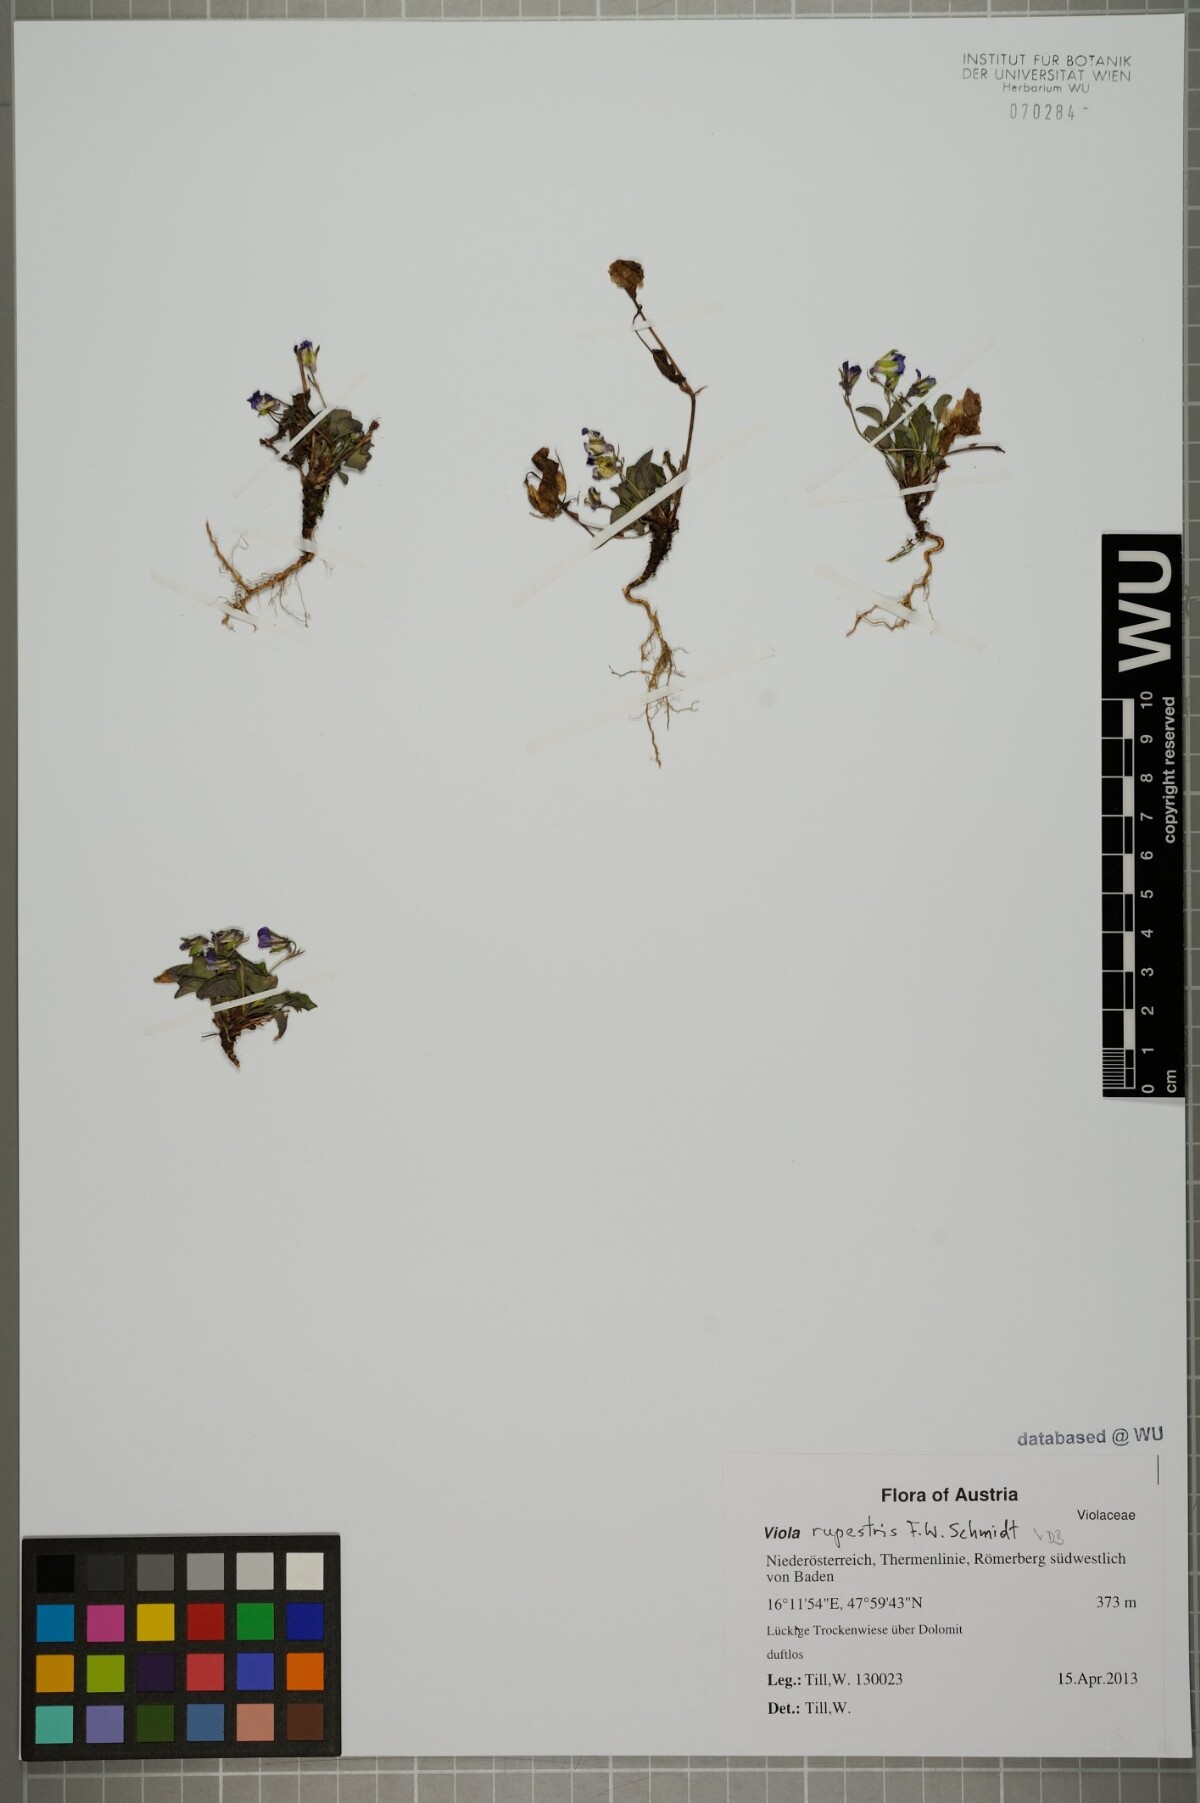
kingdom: Plantae
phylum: Tracheophyta
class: Magnoliopsida
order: Malpighiales
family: Violaceae
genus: Viola
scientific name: Viola rupestris
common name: Teesdale violet
